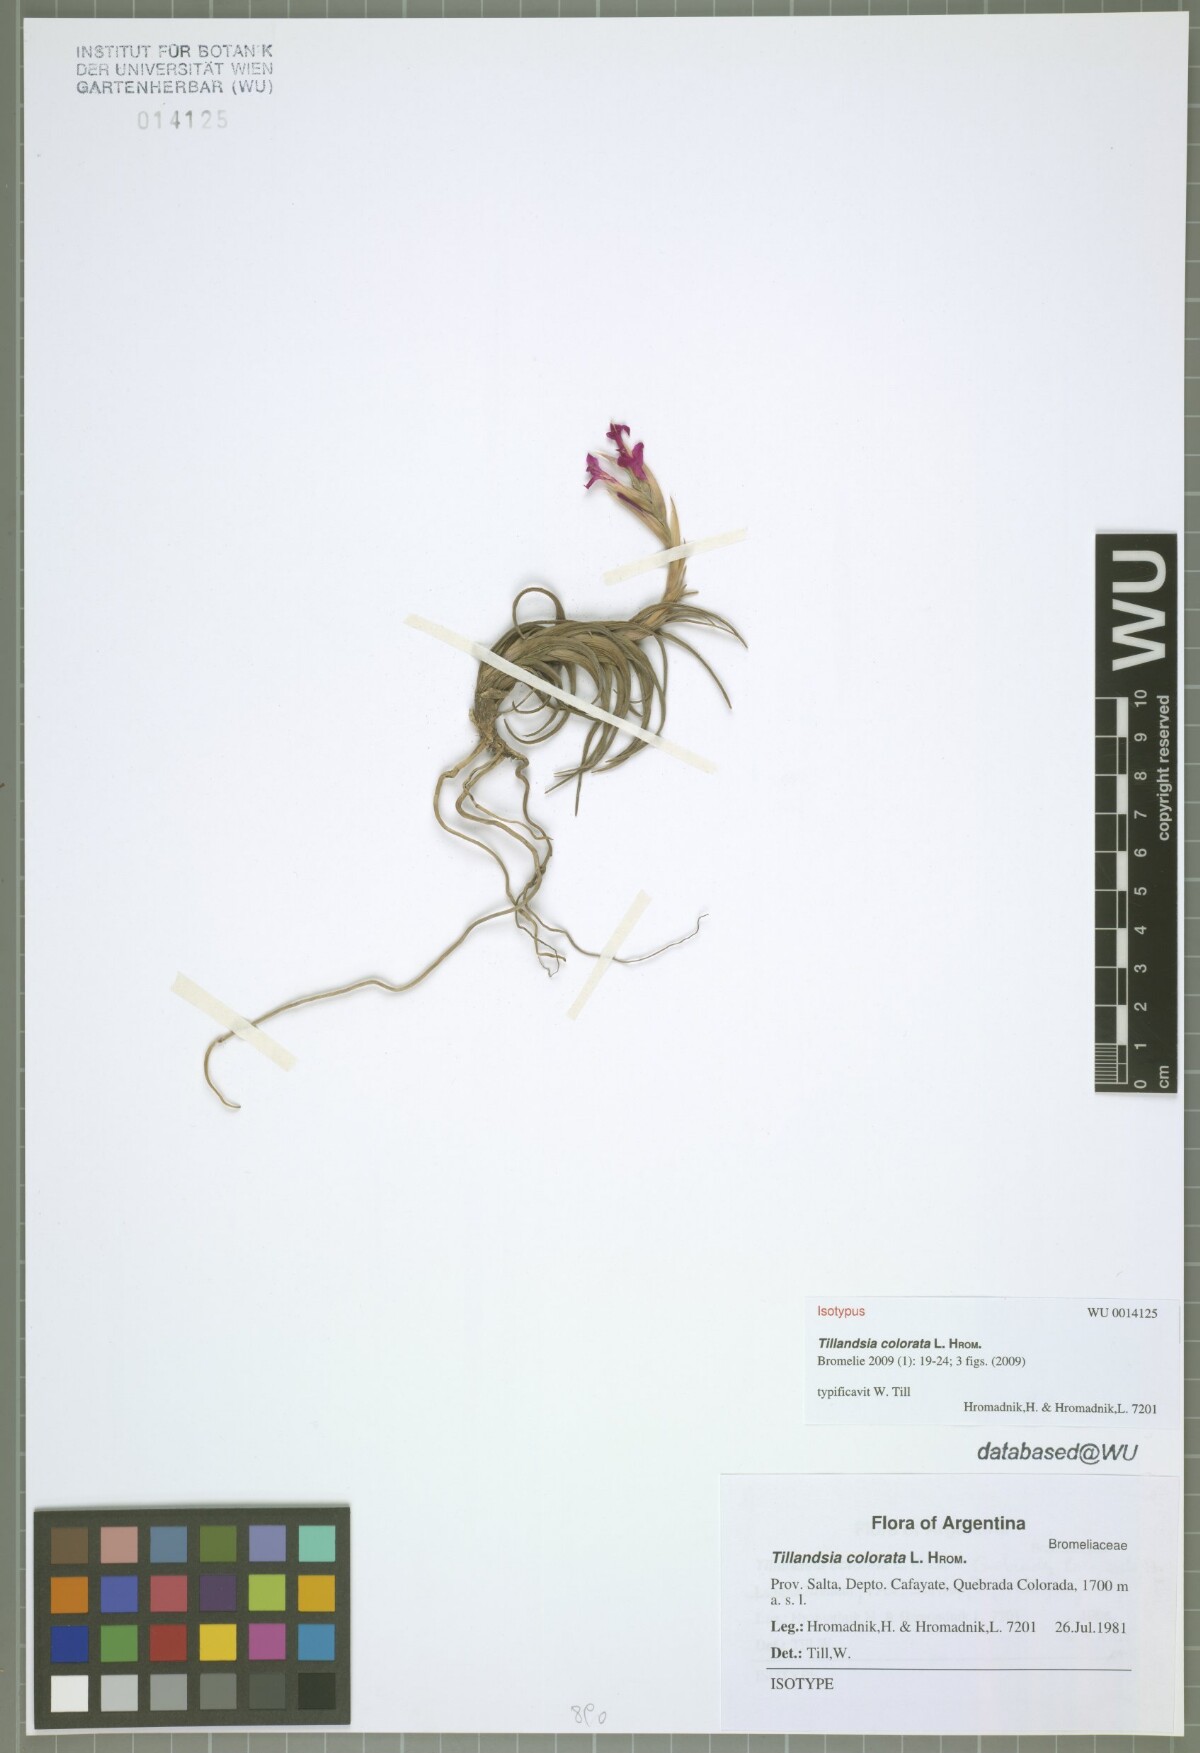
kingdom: Plantae
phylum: Tracheophyta
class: Liliopsida
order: Poales
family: Bromeliaceae
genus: Tillandsia
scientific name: Tillandsia colorata
